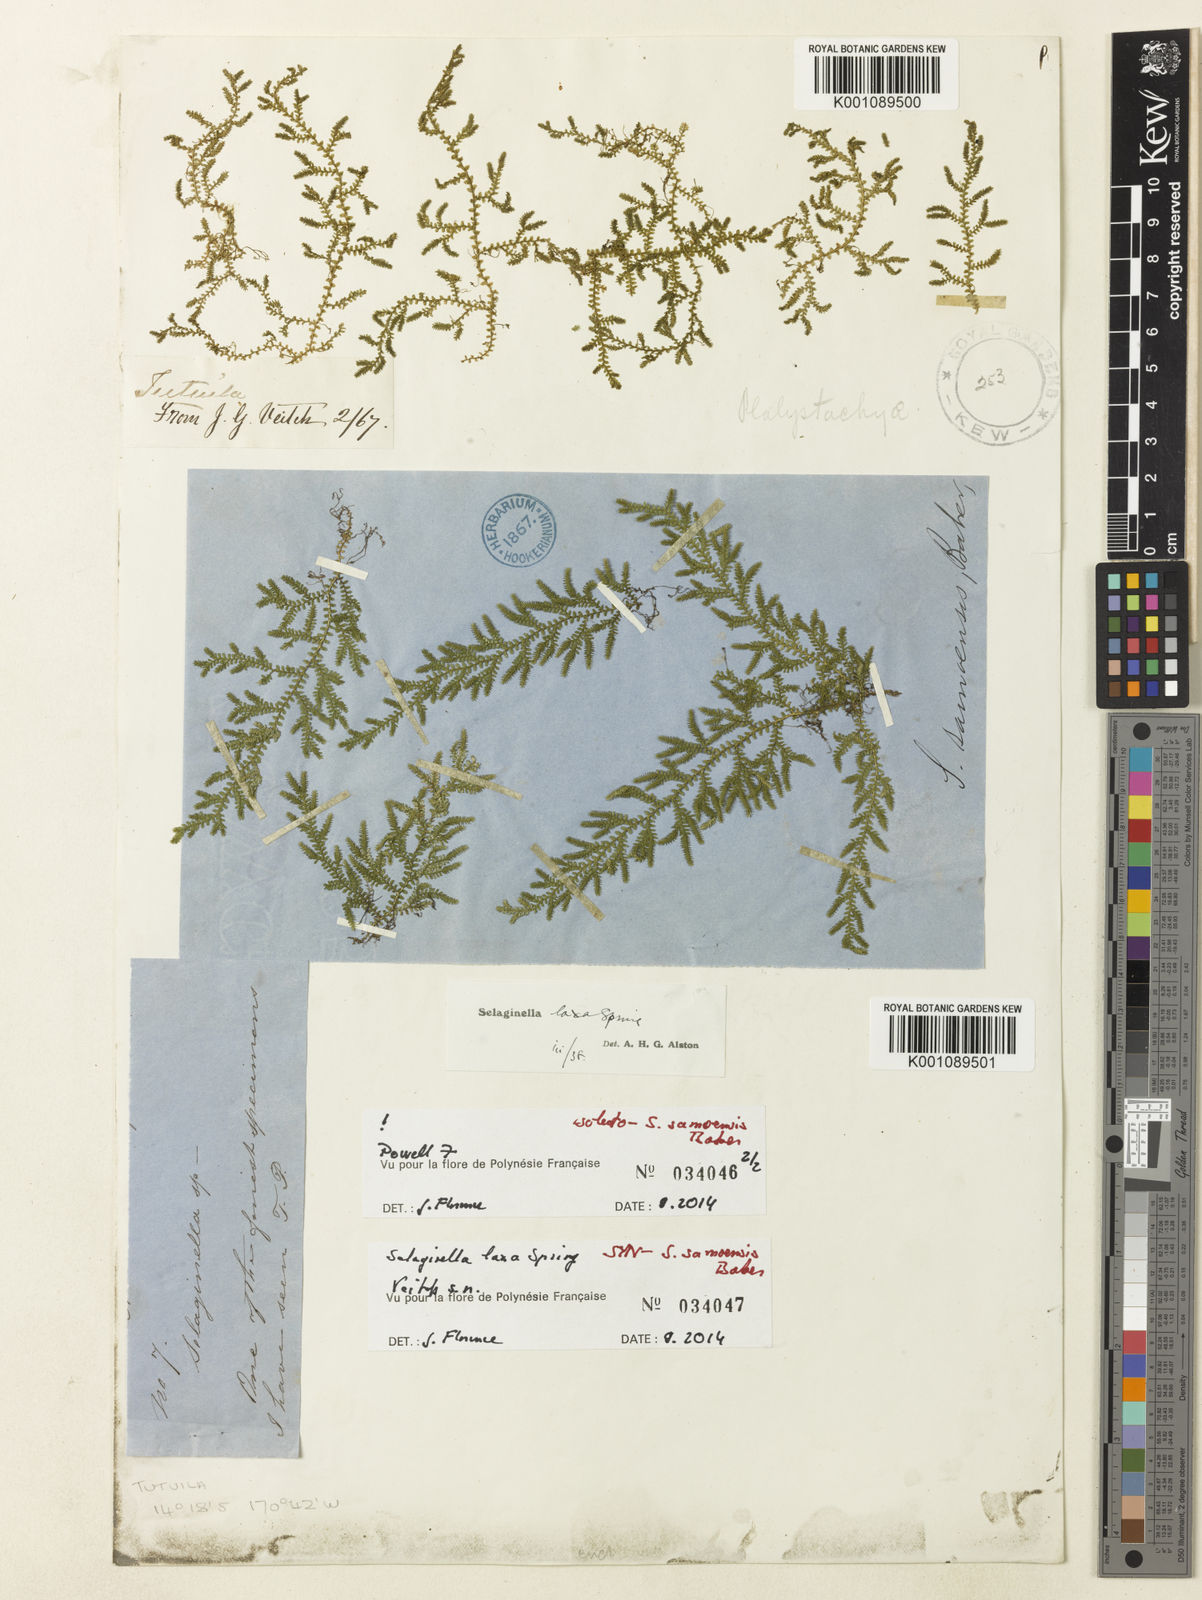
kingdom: Plantae
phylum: Tracheophyta
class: Lycopodiopsida
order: Selaginellales
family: Selaginellaceae
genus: Selaginella
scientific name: Selaginella laxa
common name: Lax spikemoss
